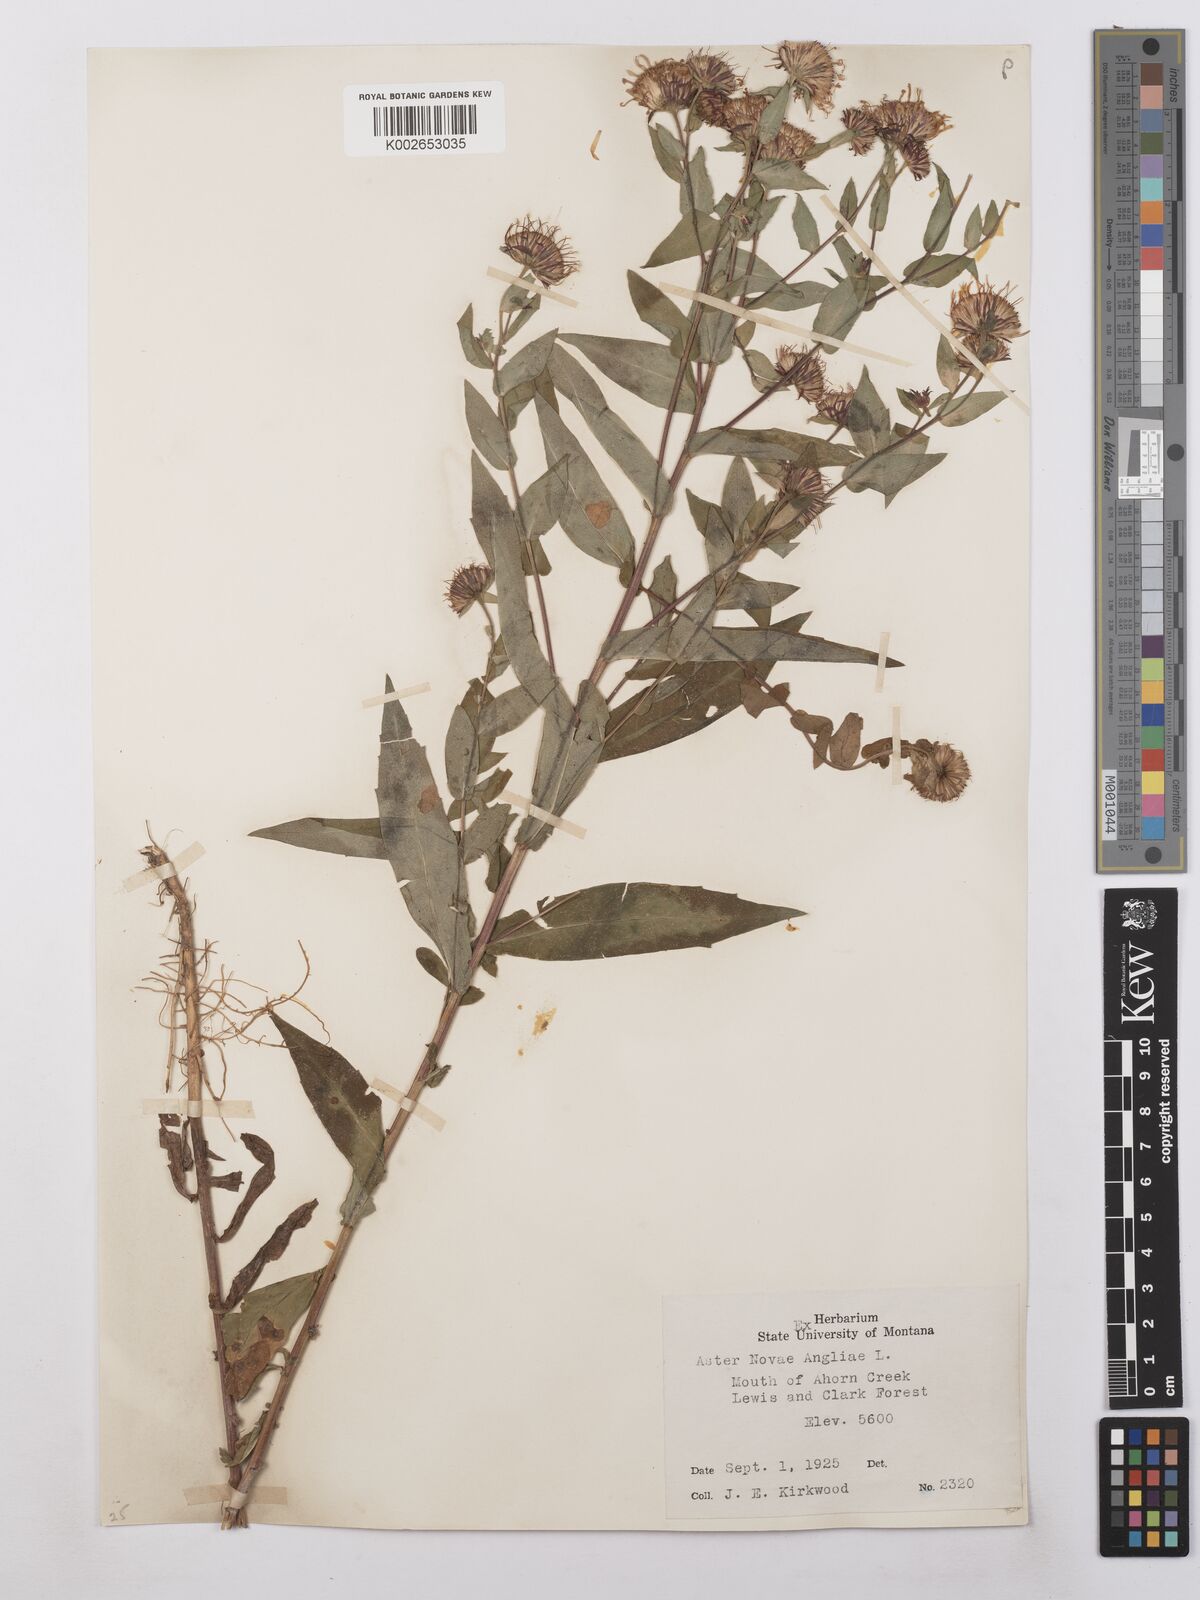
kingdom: Plantae
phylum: Tracheophyta
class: Magnoliopsida
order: Asterales
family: Asteraceae
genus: Symphyotrichum
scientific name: Symphyotrichum novae-angliae
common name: Michaelmas daisy
